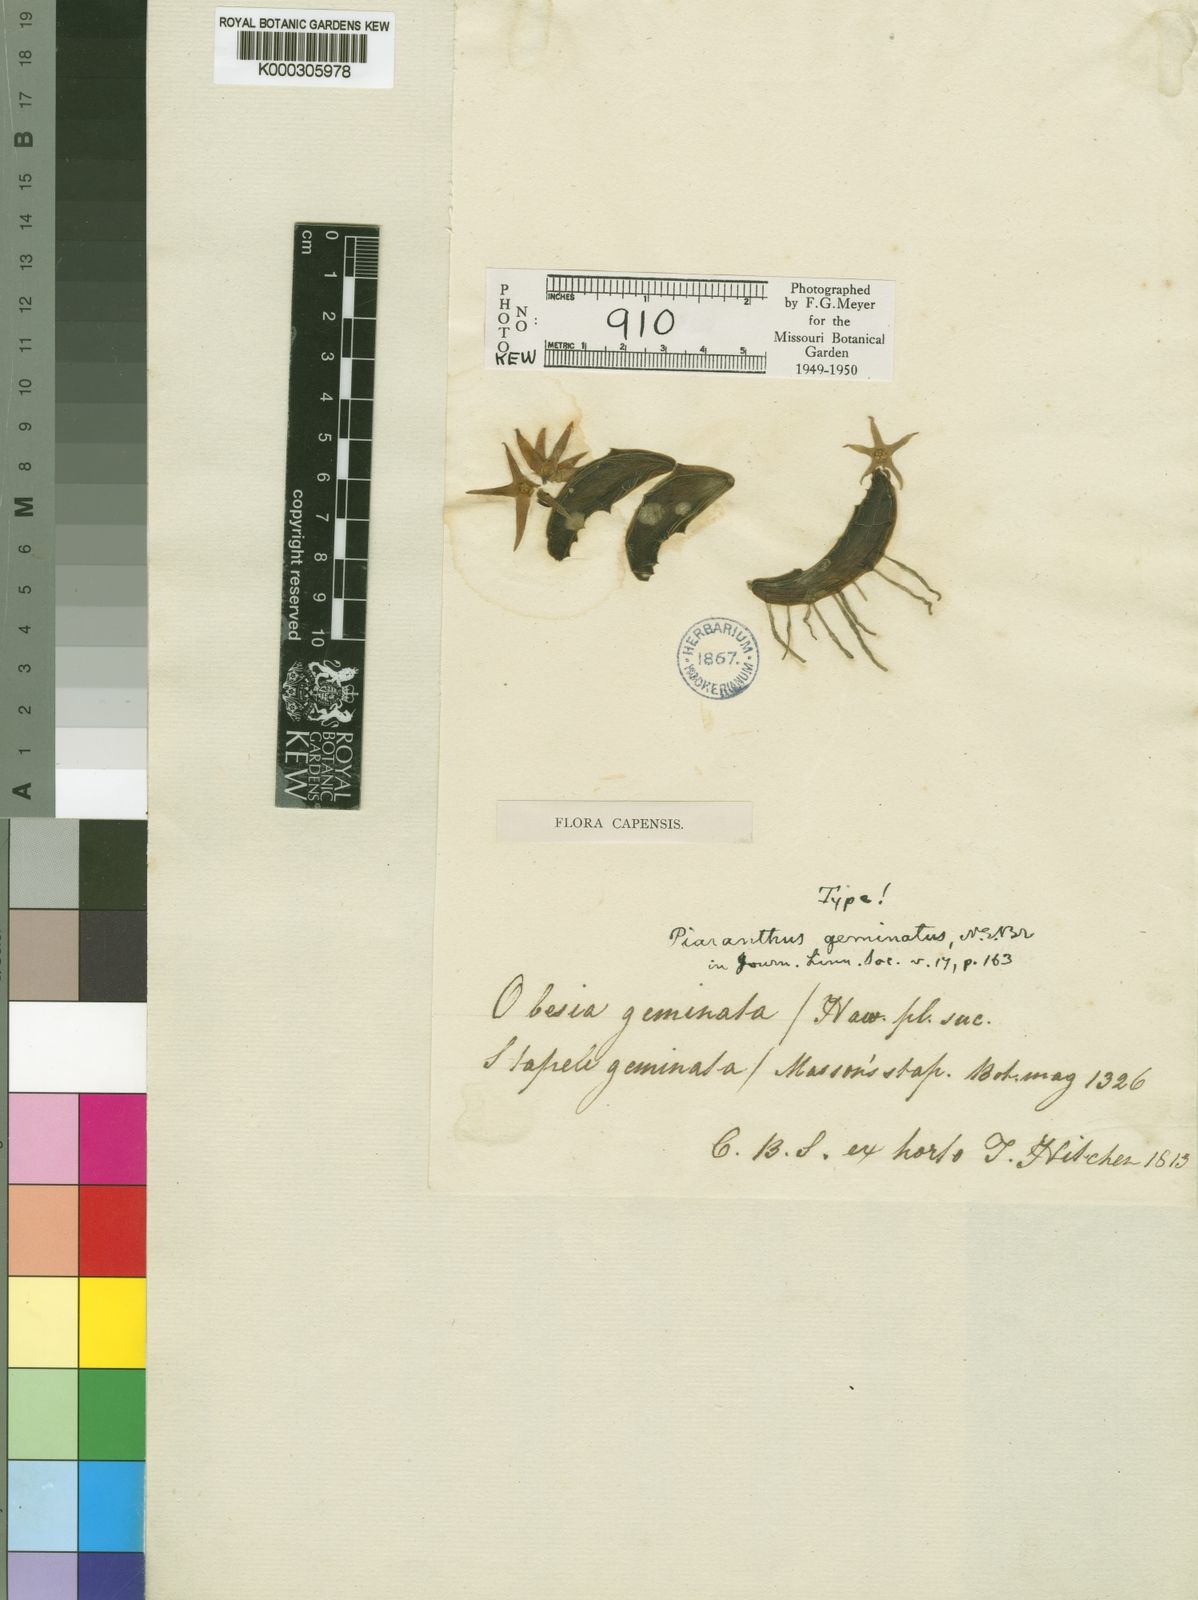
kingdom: Plantae
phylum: Tracheophyta
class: Magnoliopsida
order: Gentianales
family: Apocynaceae
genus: Ceropegia
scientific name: Ceropegia geminata
